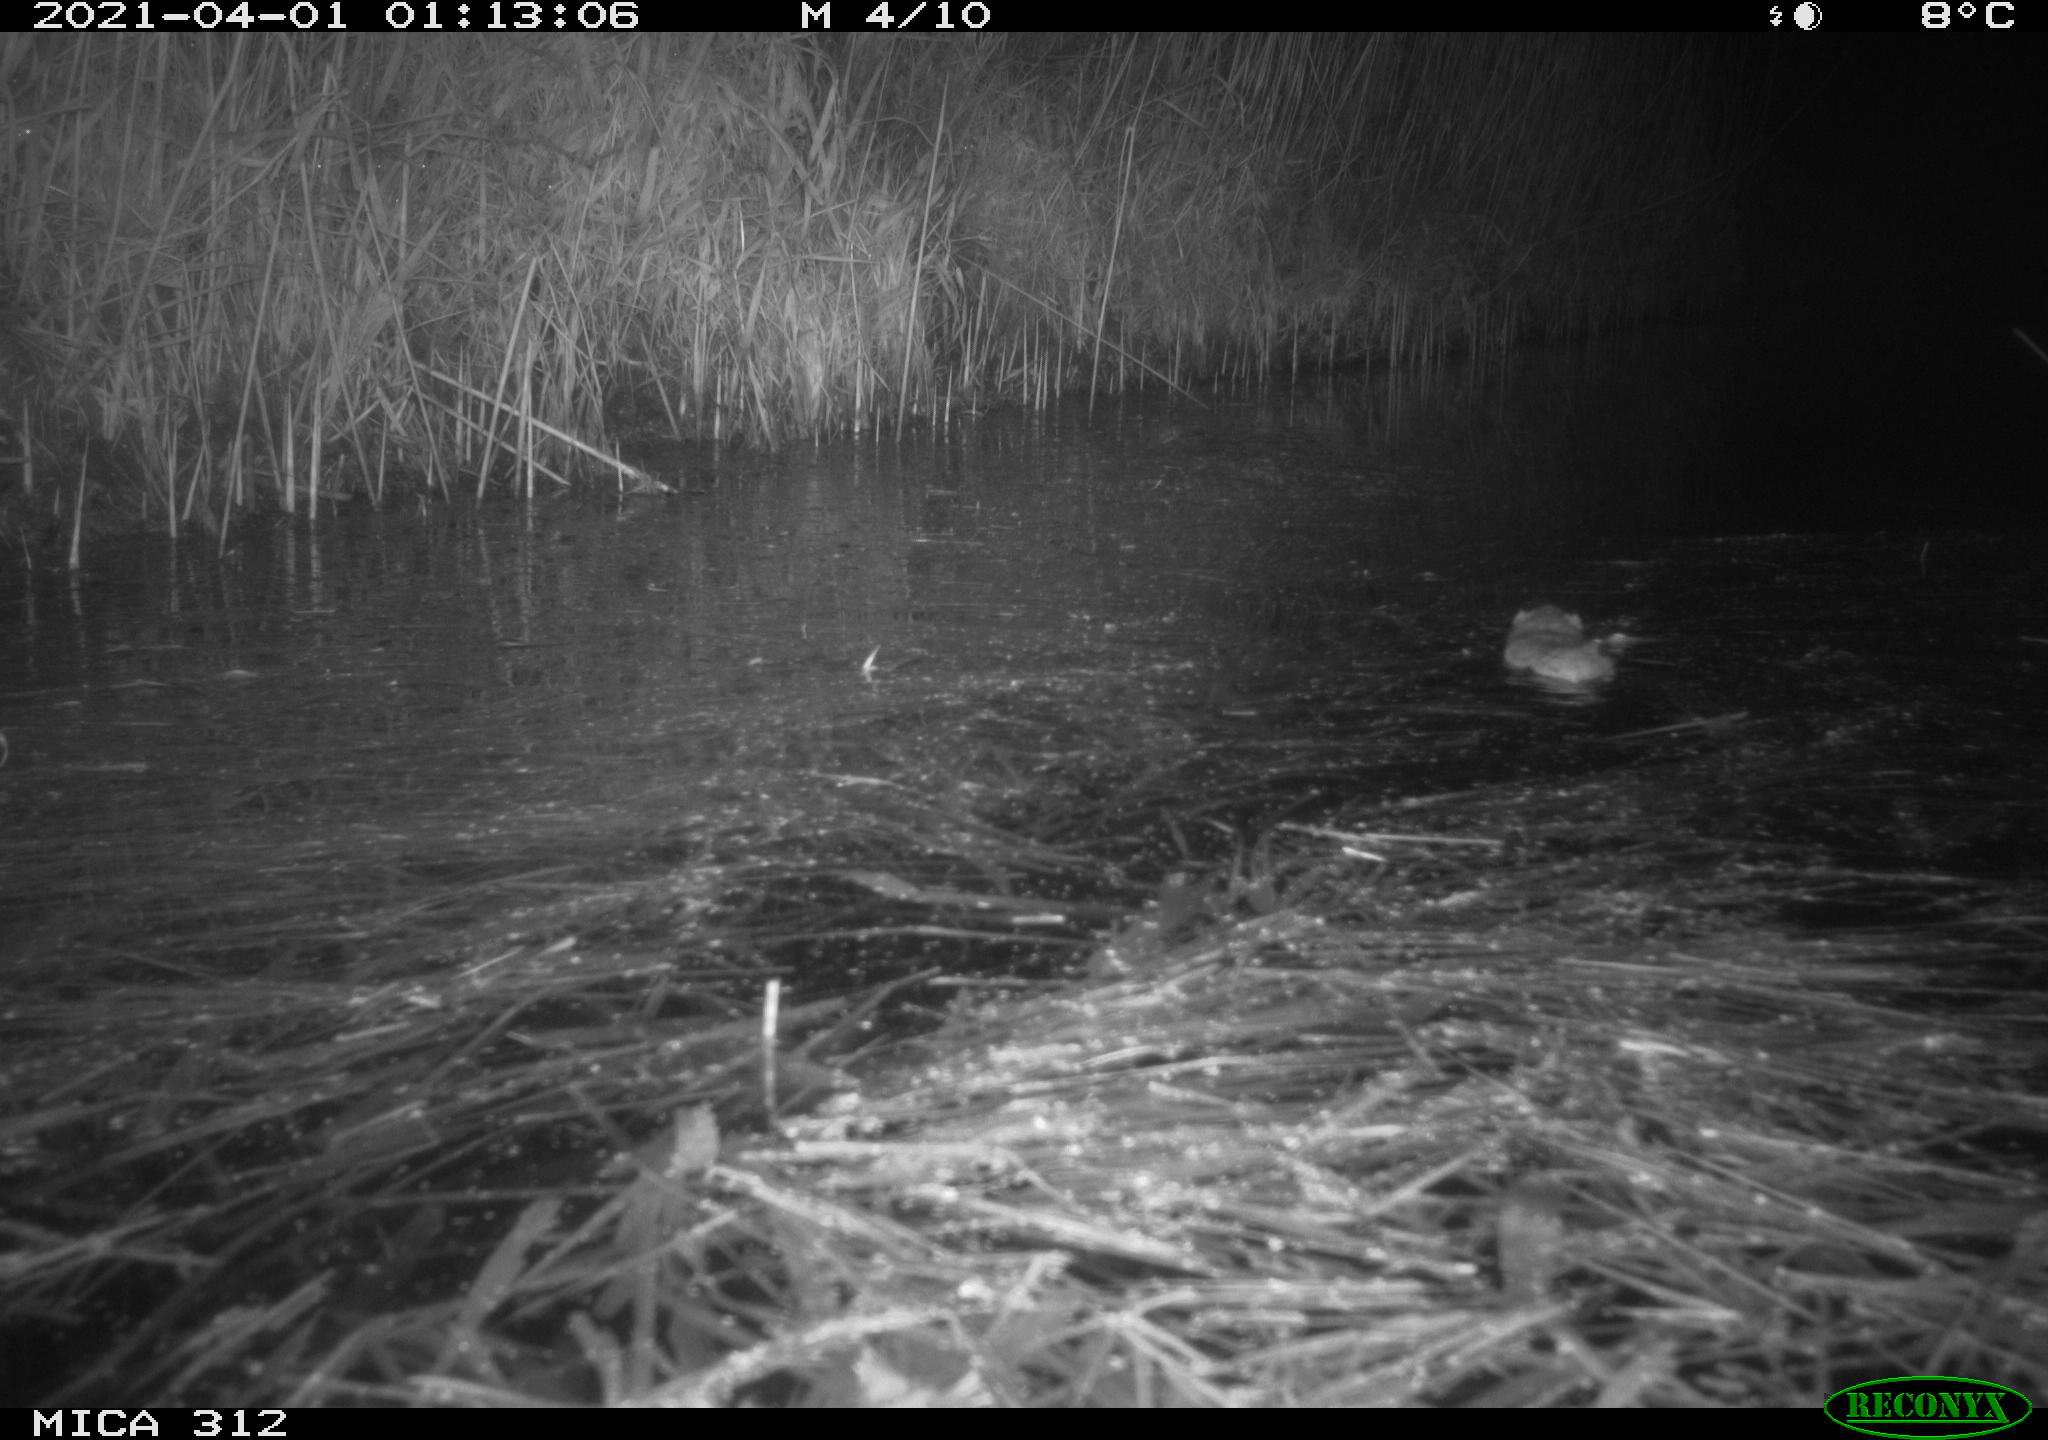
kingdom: Animalia
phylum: Chordata
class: Mammalia
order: Rodentia
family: Muridae
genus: Rattus
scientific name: Rattus norvegicus
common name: Brown rat
